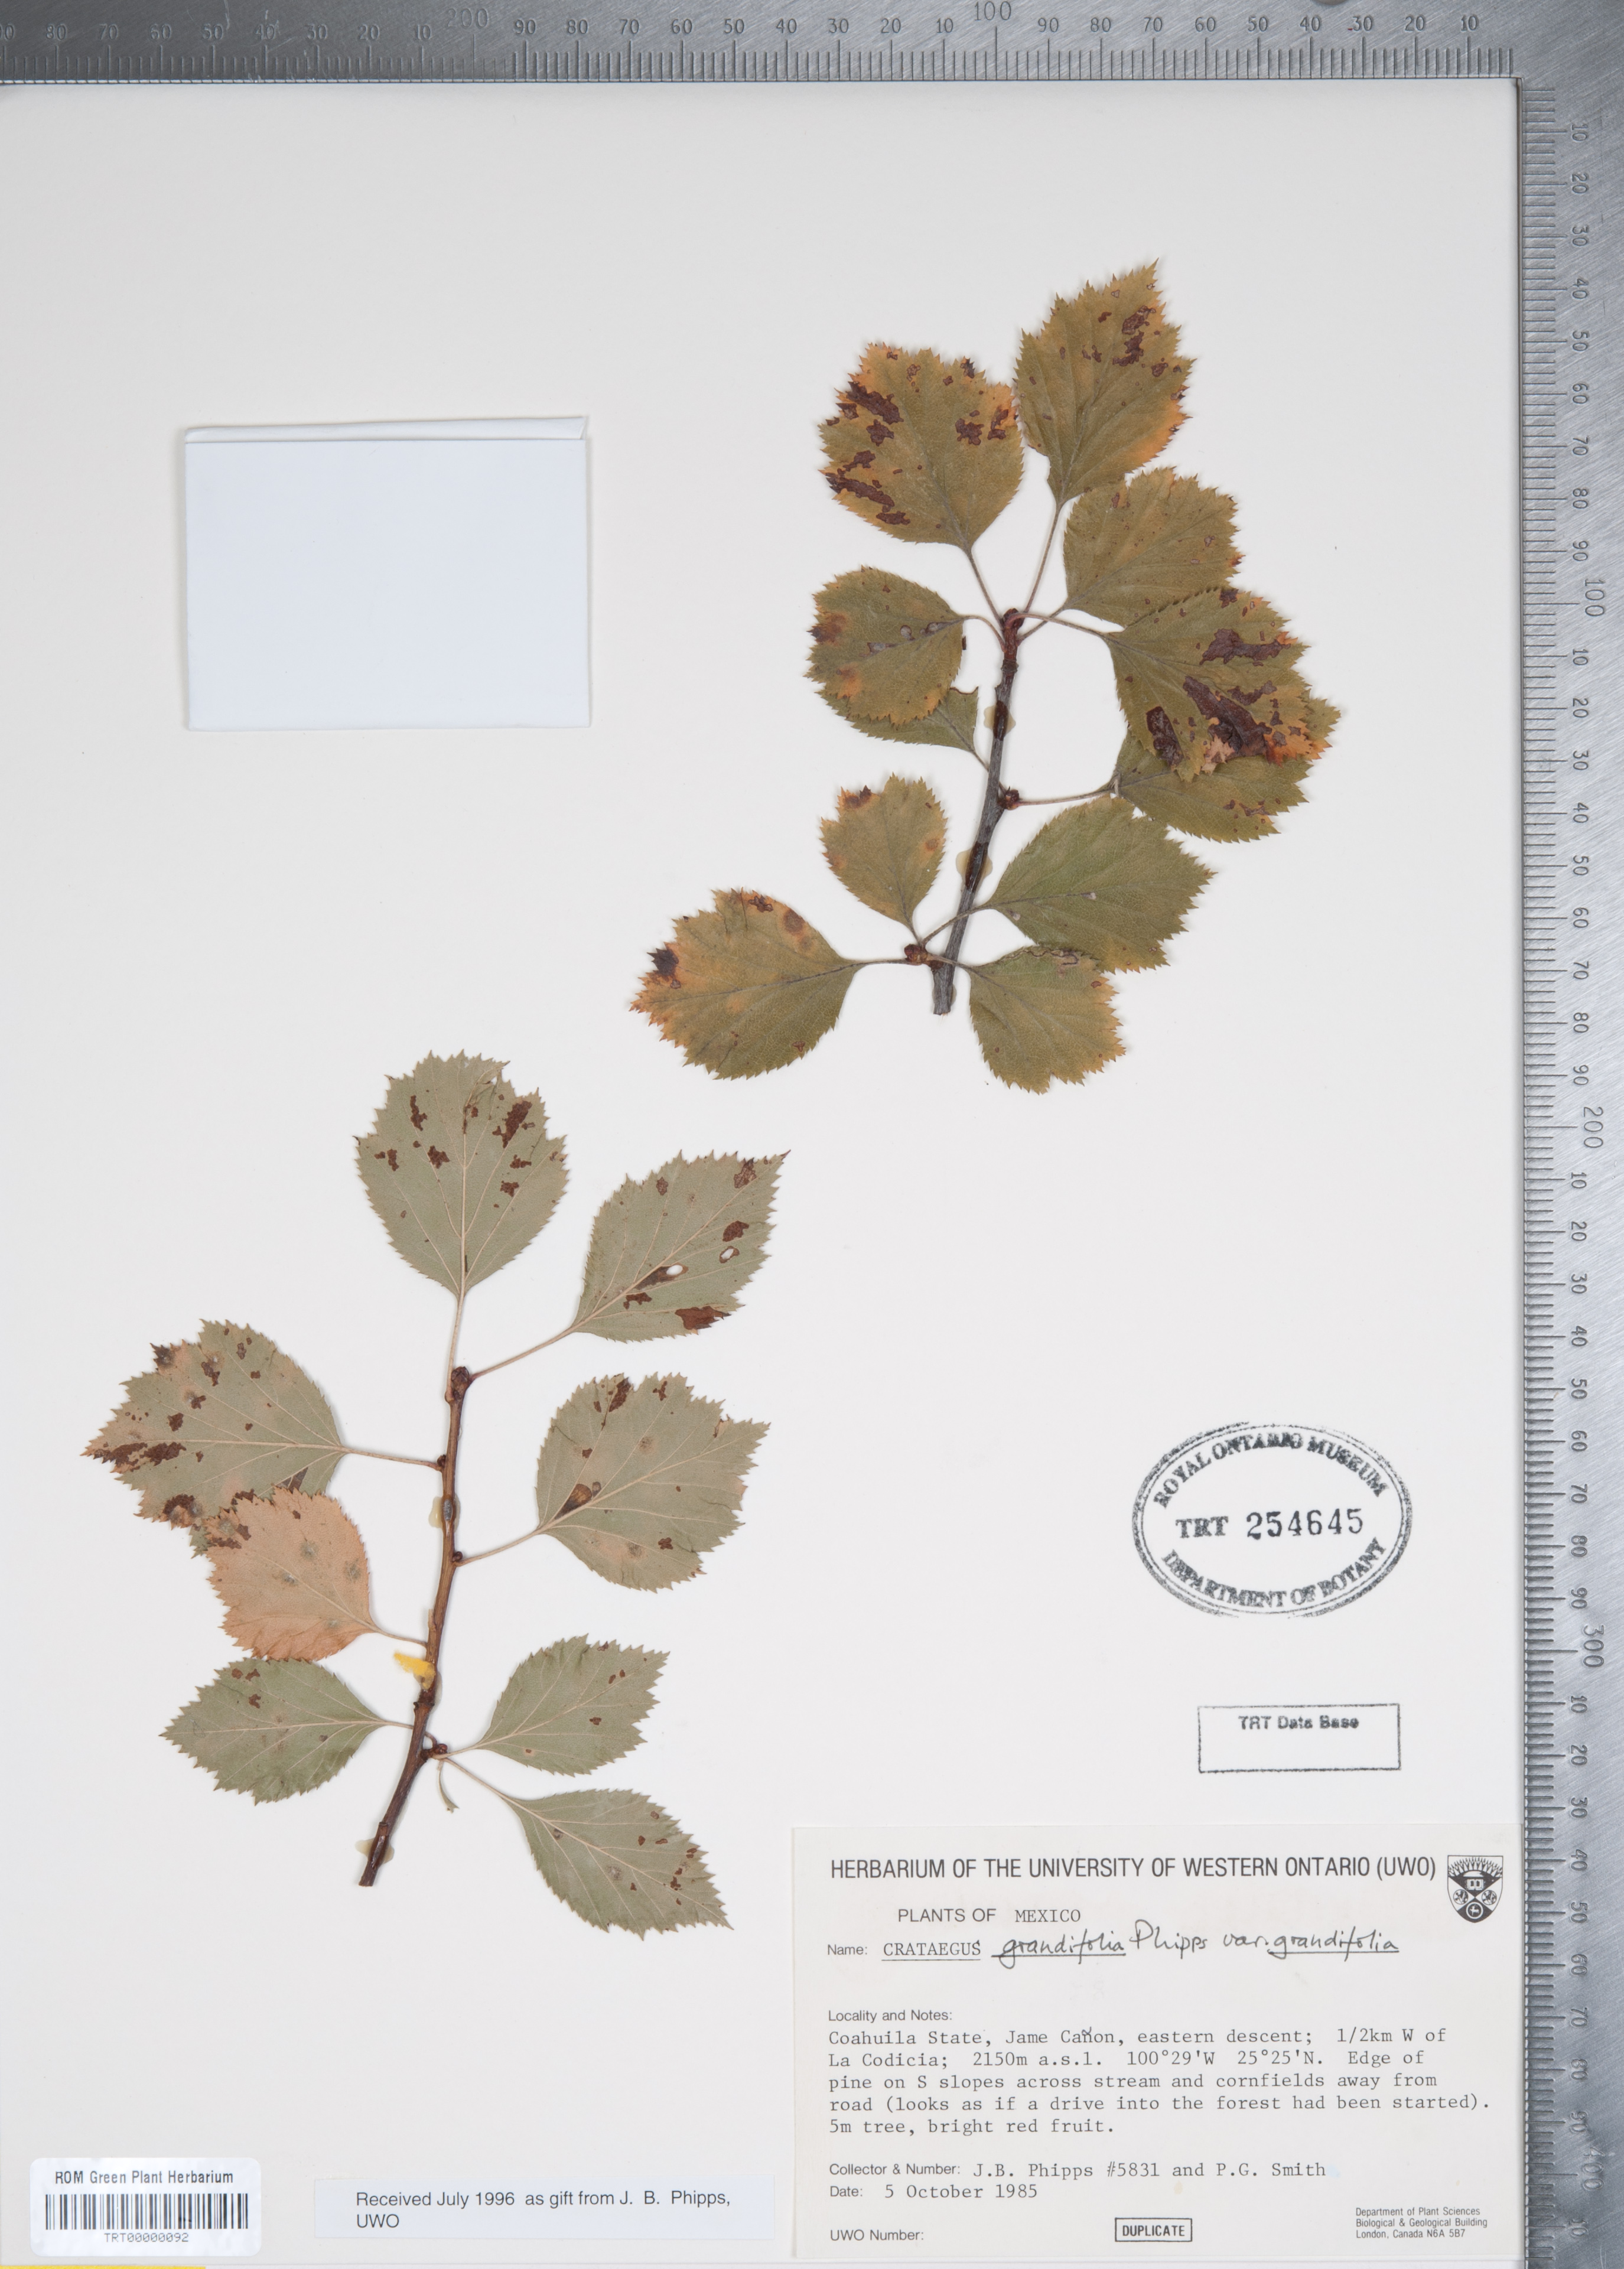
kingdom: Plantae
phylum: Tracheophyta
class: Magnoliopsida
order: Rosales
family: Rosaceae
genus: Crataegus
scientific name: Crataegus grandifolia
